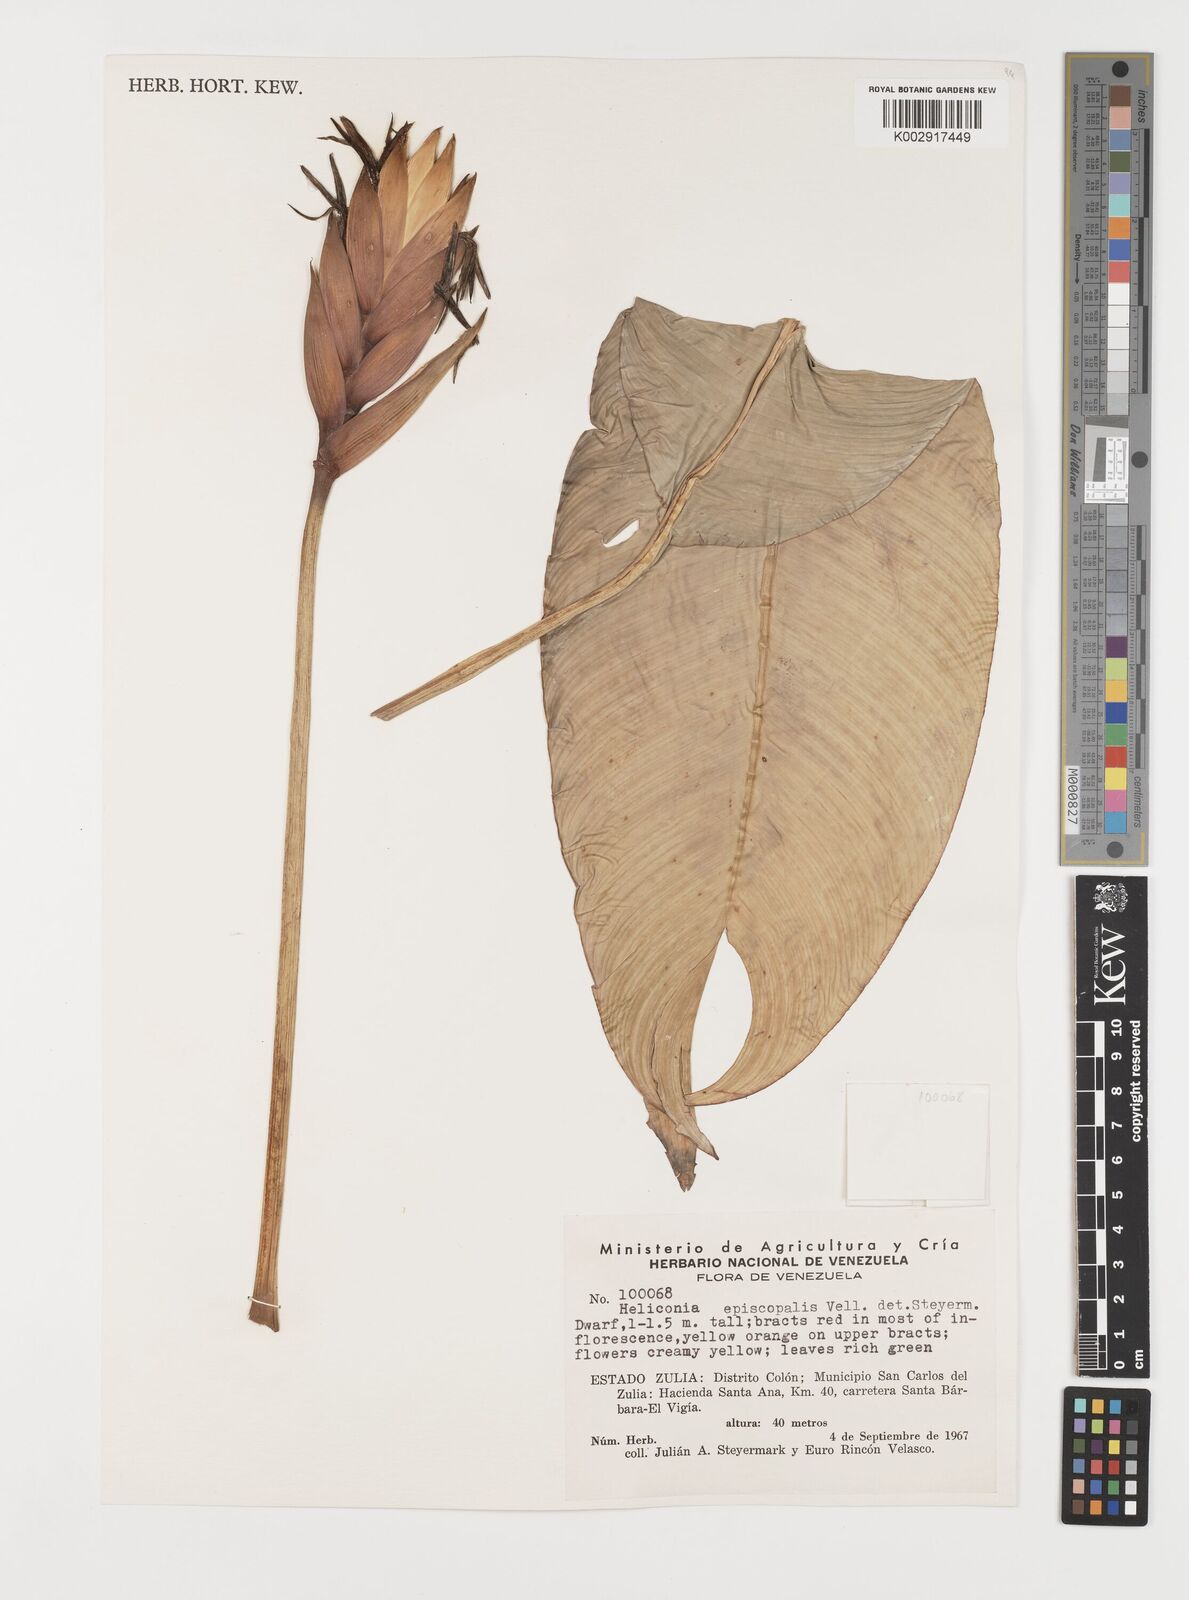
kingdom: Plantae
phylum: Tracheophyta
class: Liliopsida
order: Zingiberales
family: Heliconiaceae
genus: Heliconia
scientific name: Heliconia episcopalis
